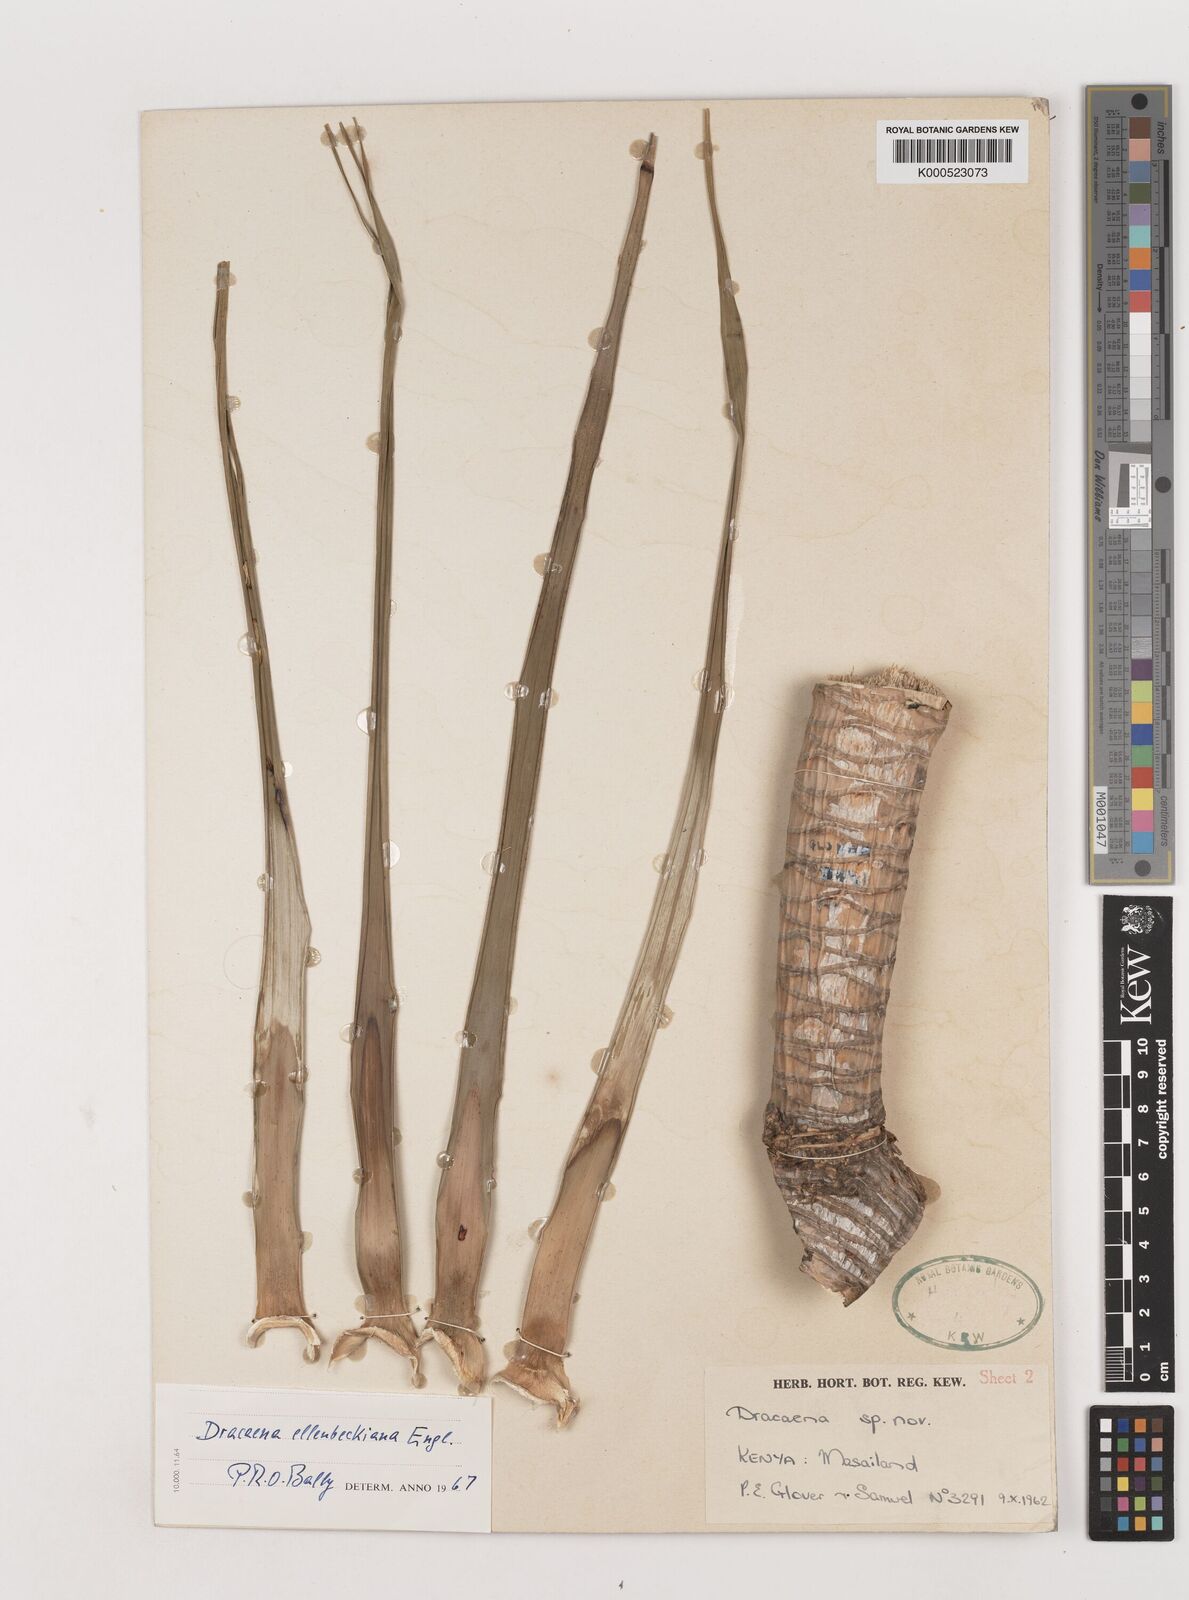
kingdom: Plantae
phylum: Tracheophyta
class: Liliopsida
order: Asparagales
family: Asparagaceae
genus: Dracaena
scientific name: Dracaena ellenbeckiana
